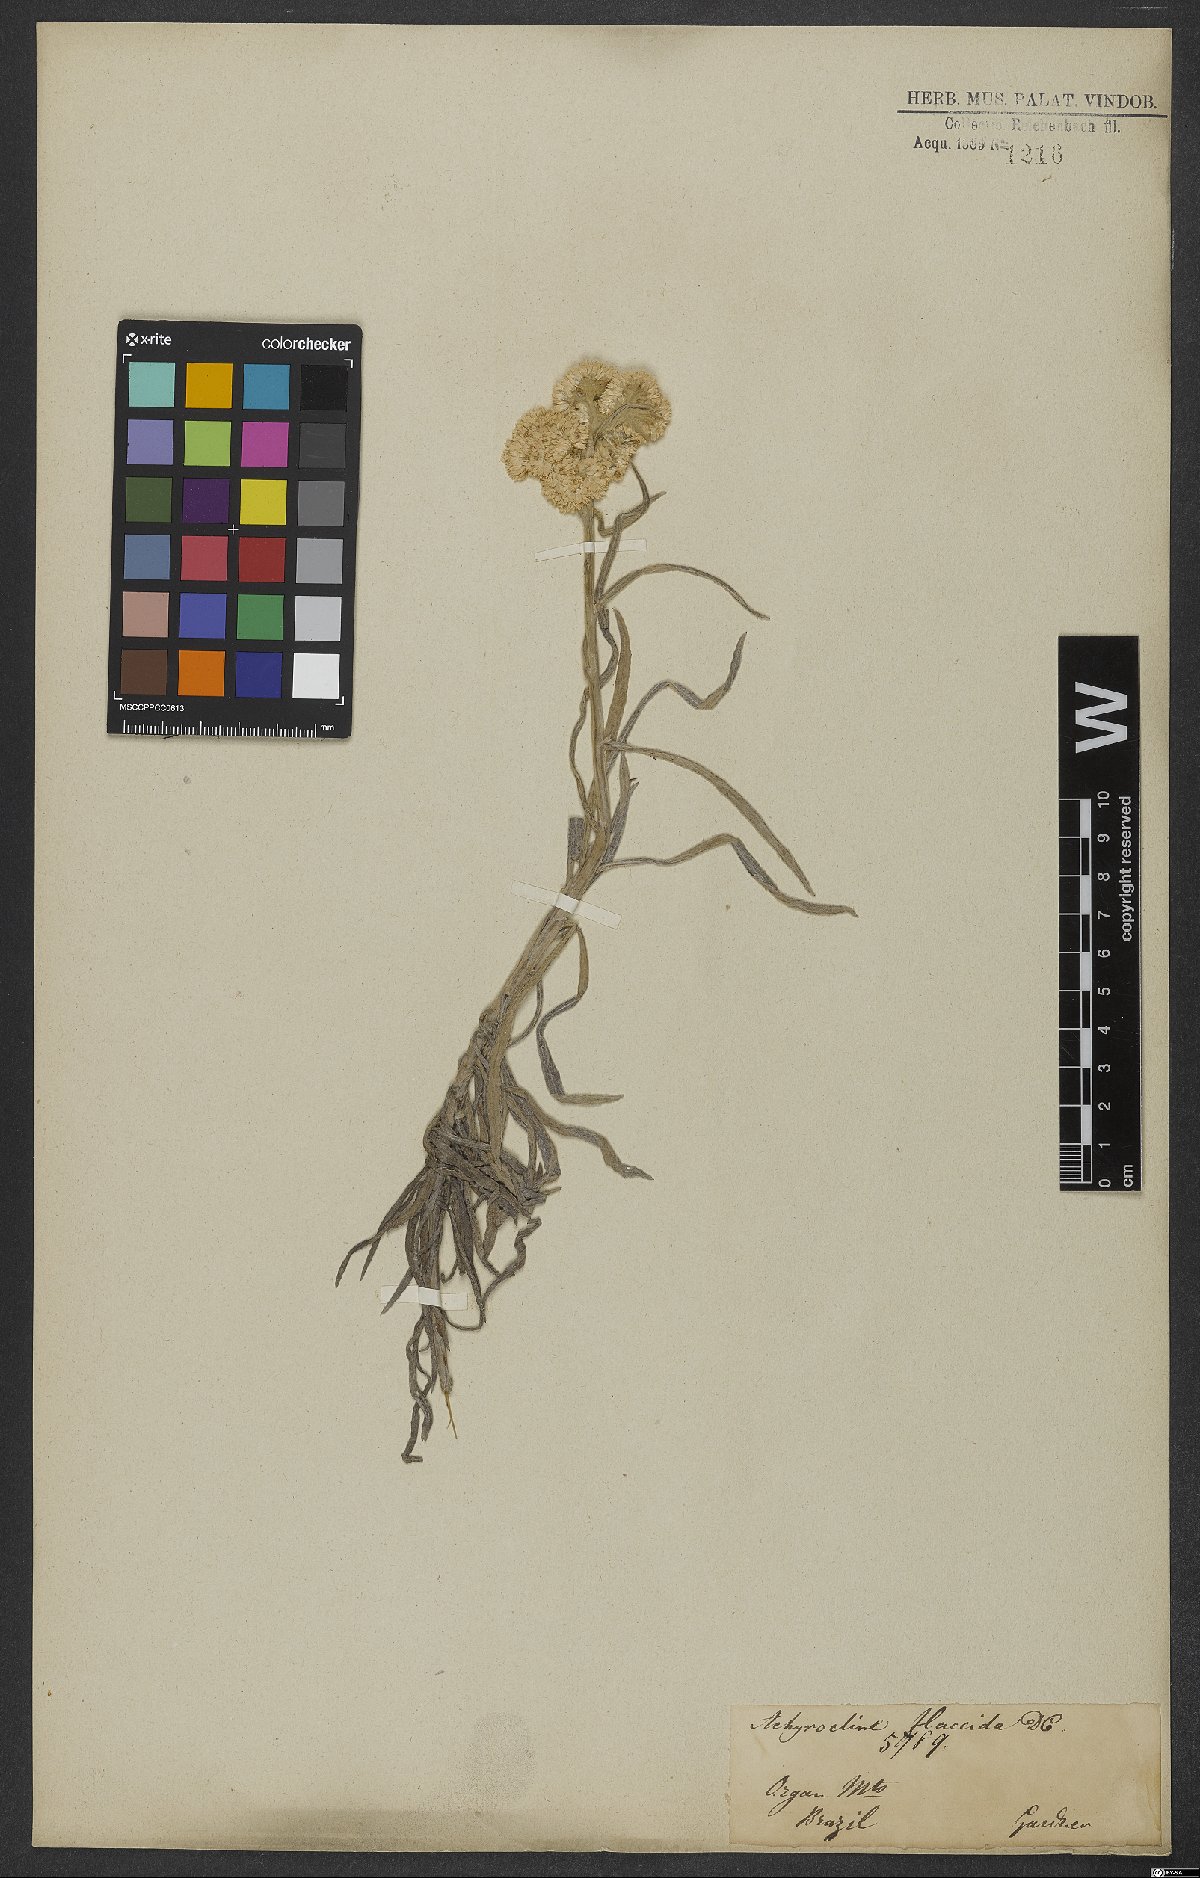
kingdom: Plantae
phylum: Tracheophyta
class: Magnoliopsida
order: Asterales
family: Asteraceae
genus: Achyrocline
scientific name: Achyrocline flaccida
